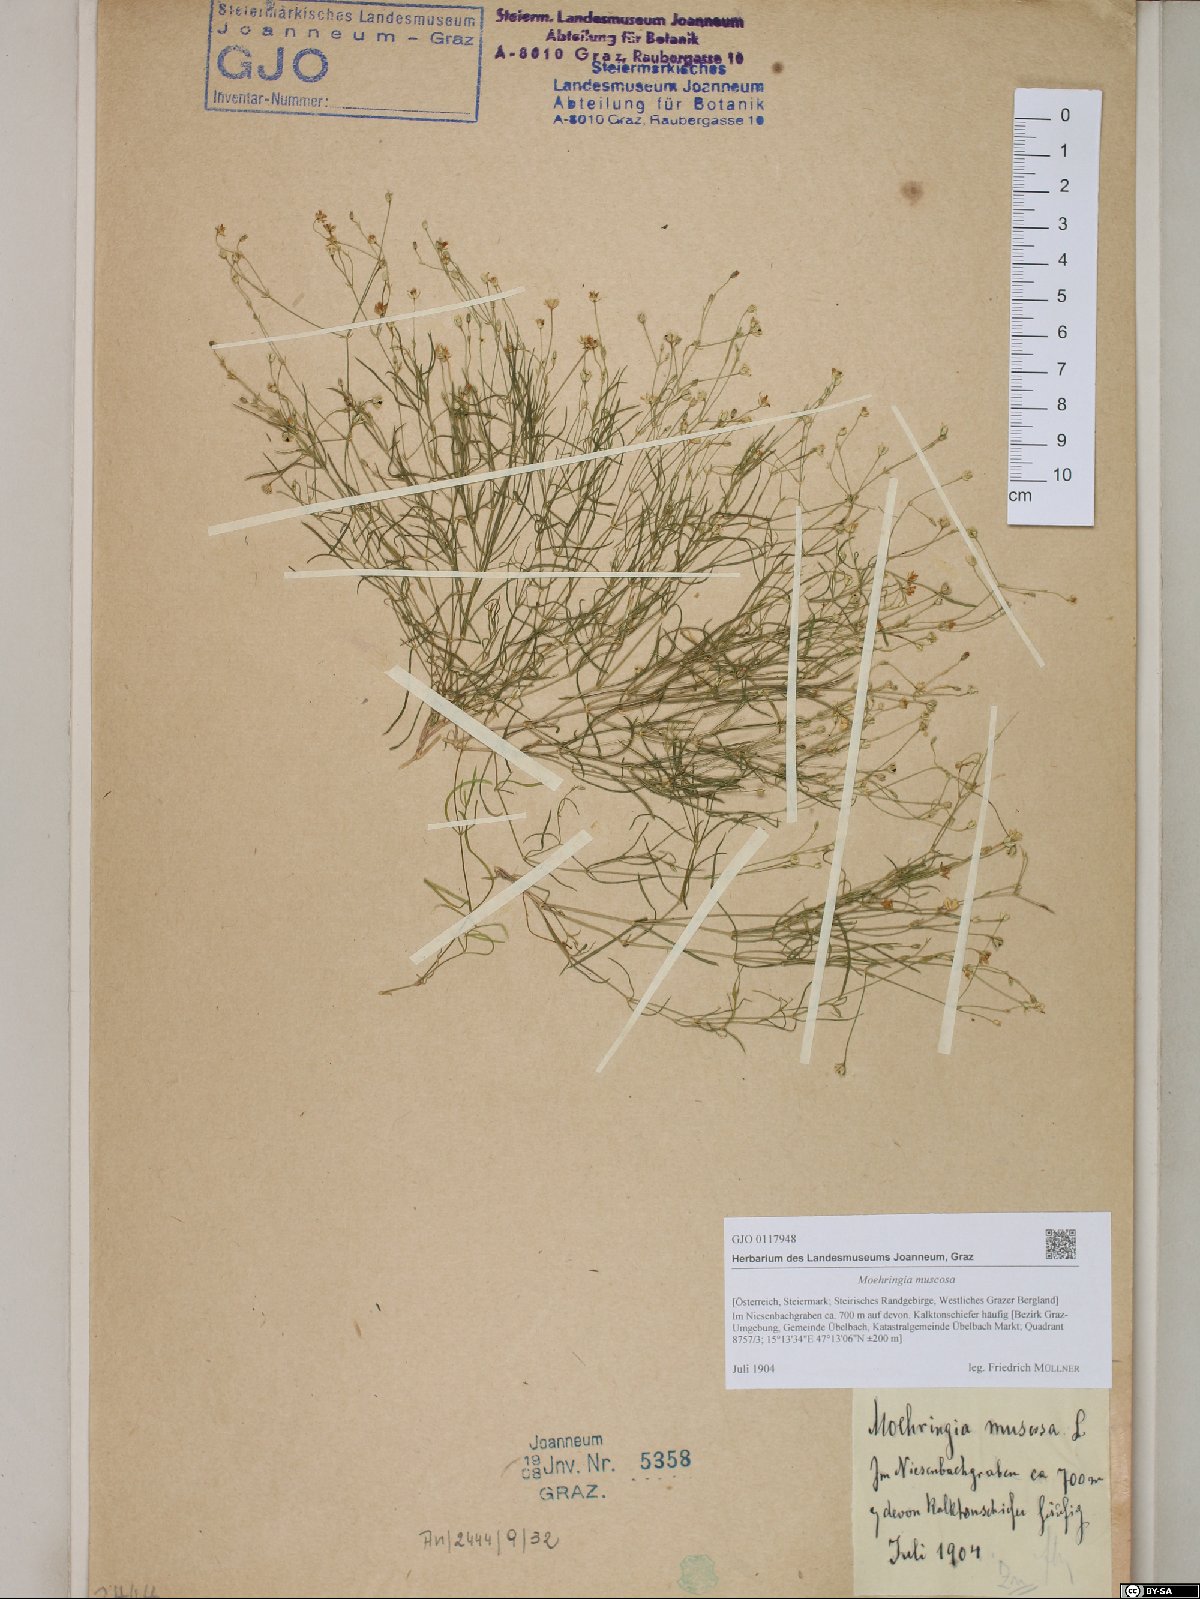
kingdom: Plantae
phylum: Tracheophyta
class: Magnoliopsida
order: Caryophyllales
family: Caryophyllaceae
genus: Moehringia
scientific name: Moehringia muscosa
